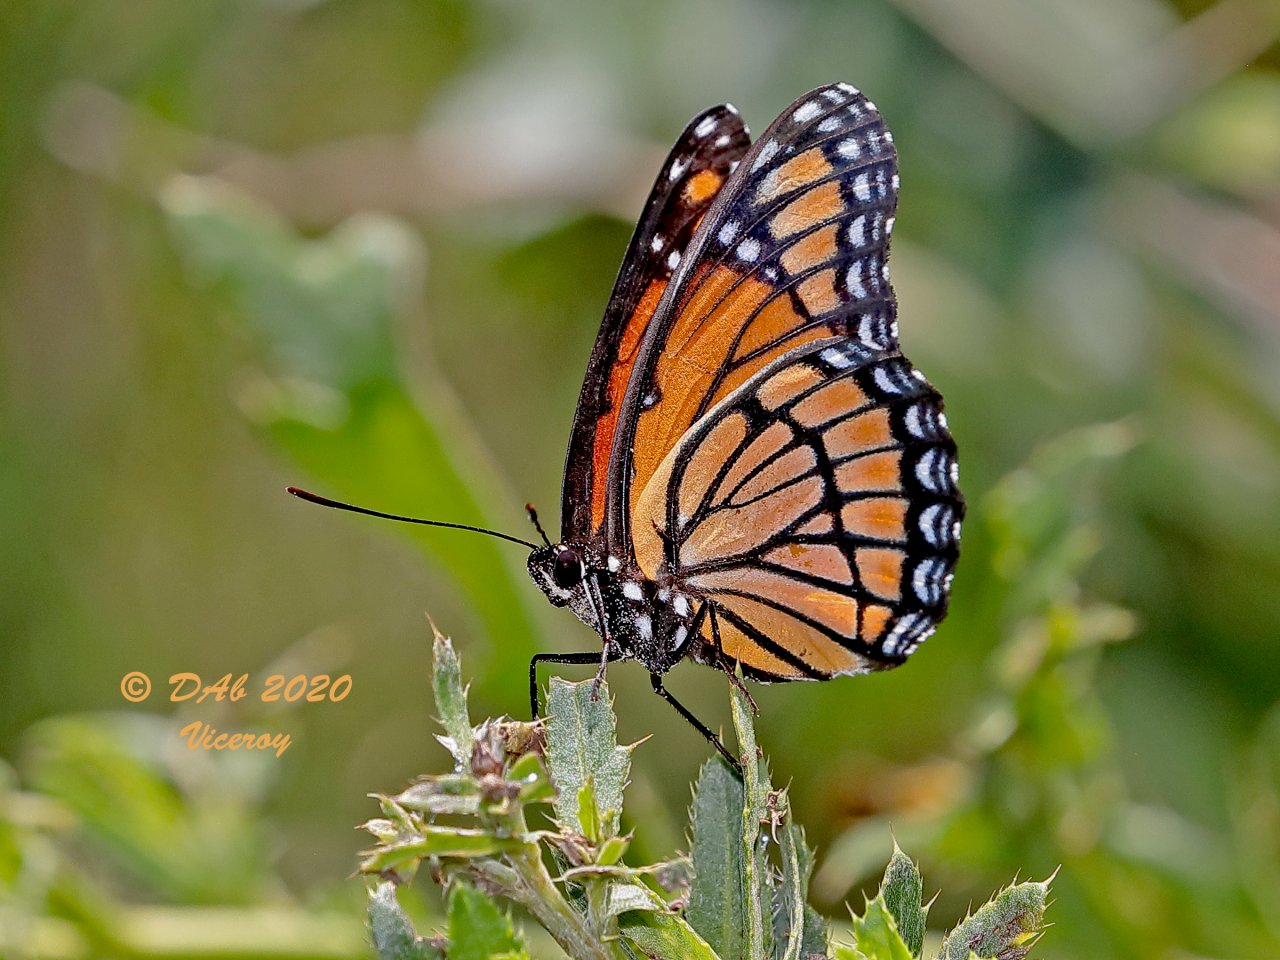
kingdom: Animalia
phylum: Arthropoda
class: Insecta
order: Lepidoptera
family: Nymphalidae
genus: Limenitis
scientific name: Limenitis archippus
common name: Viceroy
